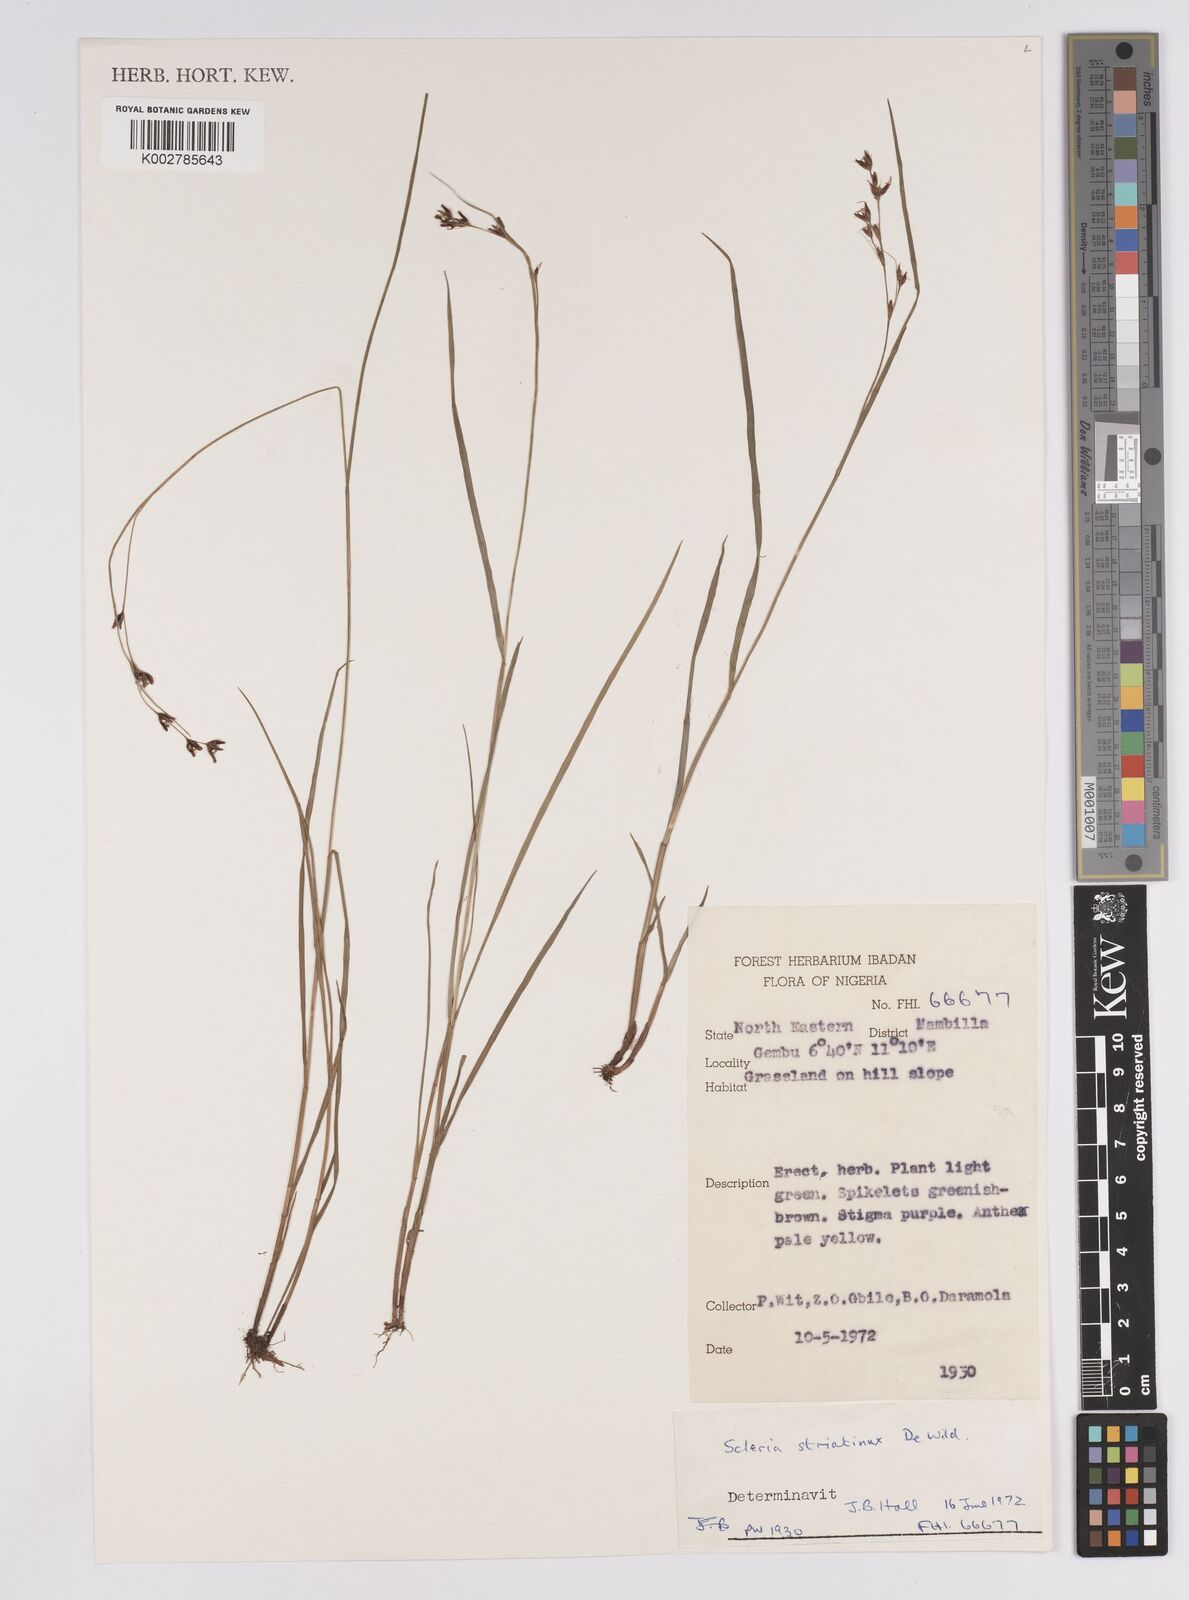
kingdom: Plantae
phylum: Tracheophyta
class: Liliopsida
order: Poales
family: Cyperaceae
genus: Scleria
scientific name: Scleria woodii
